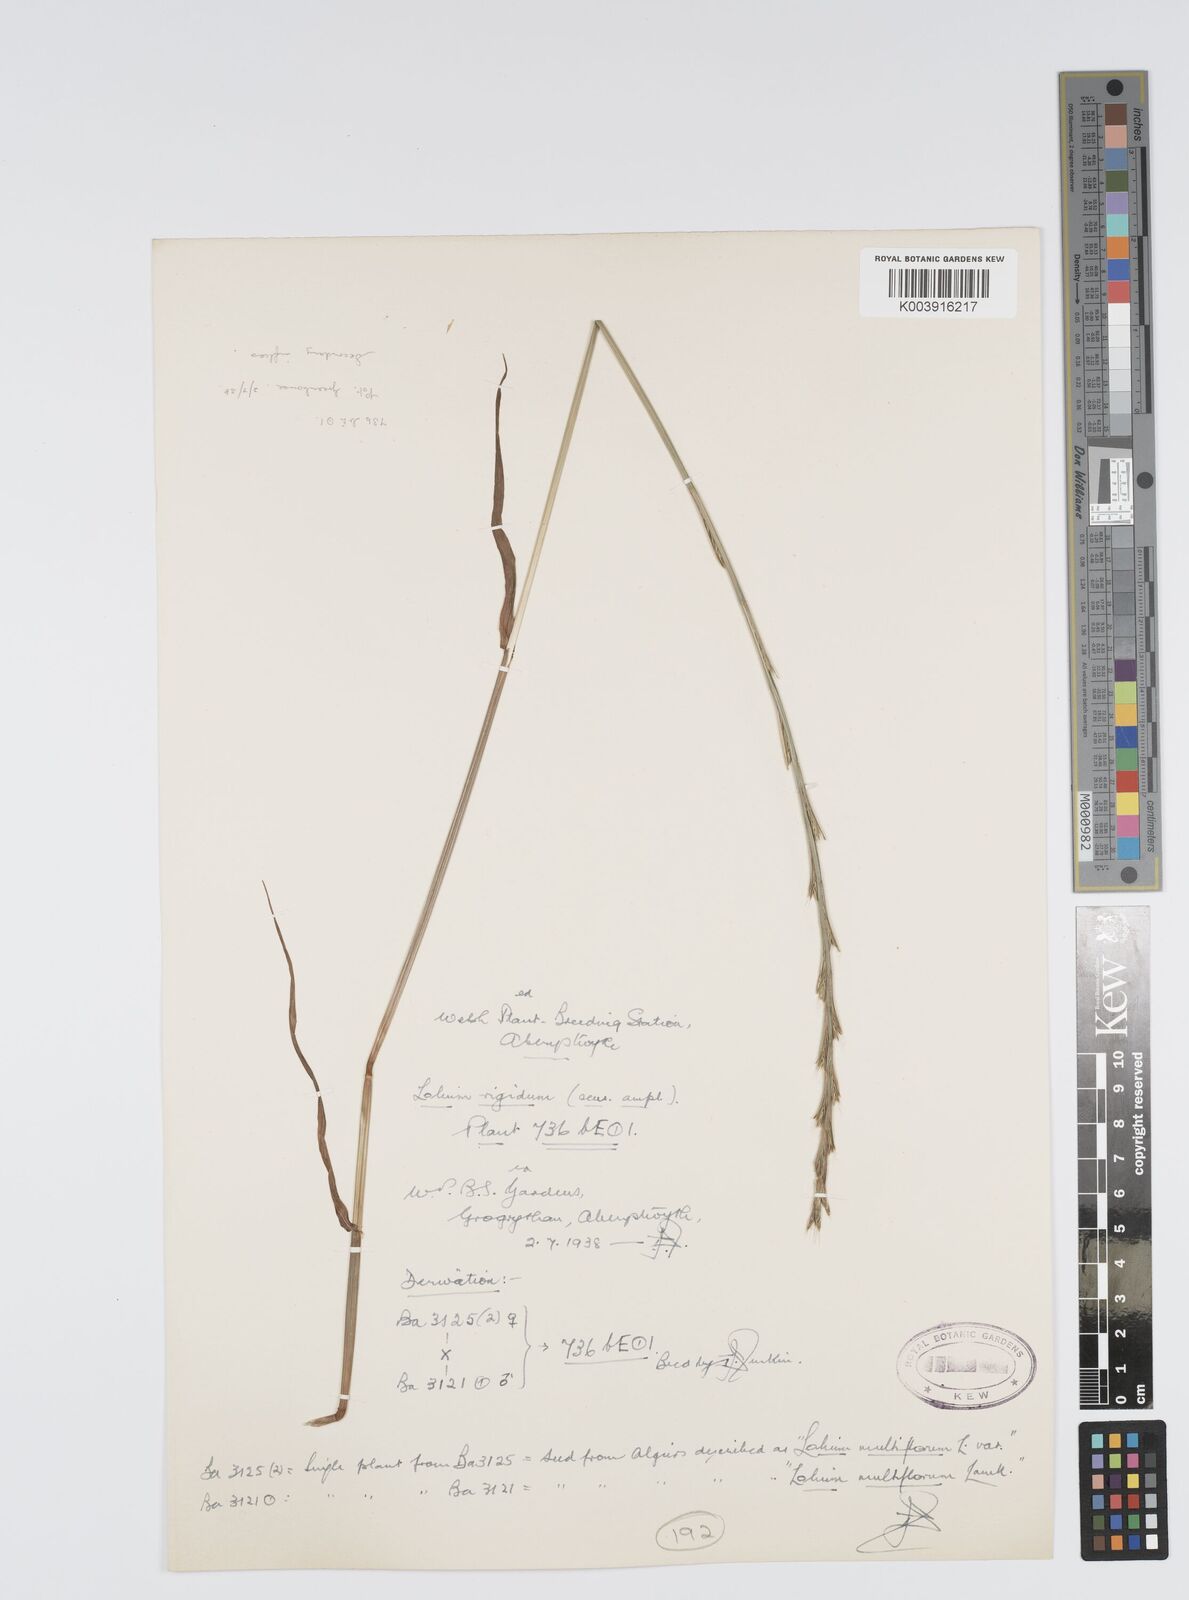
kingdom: Plantae
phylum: Tracheophyta
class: Liliopsida
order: Poales
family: Poaceae
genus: Lolium
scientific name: Lolium rigidum
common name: Wimmera ryegrass
